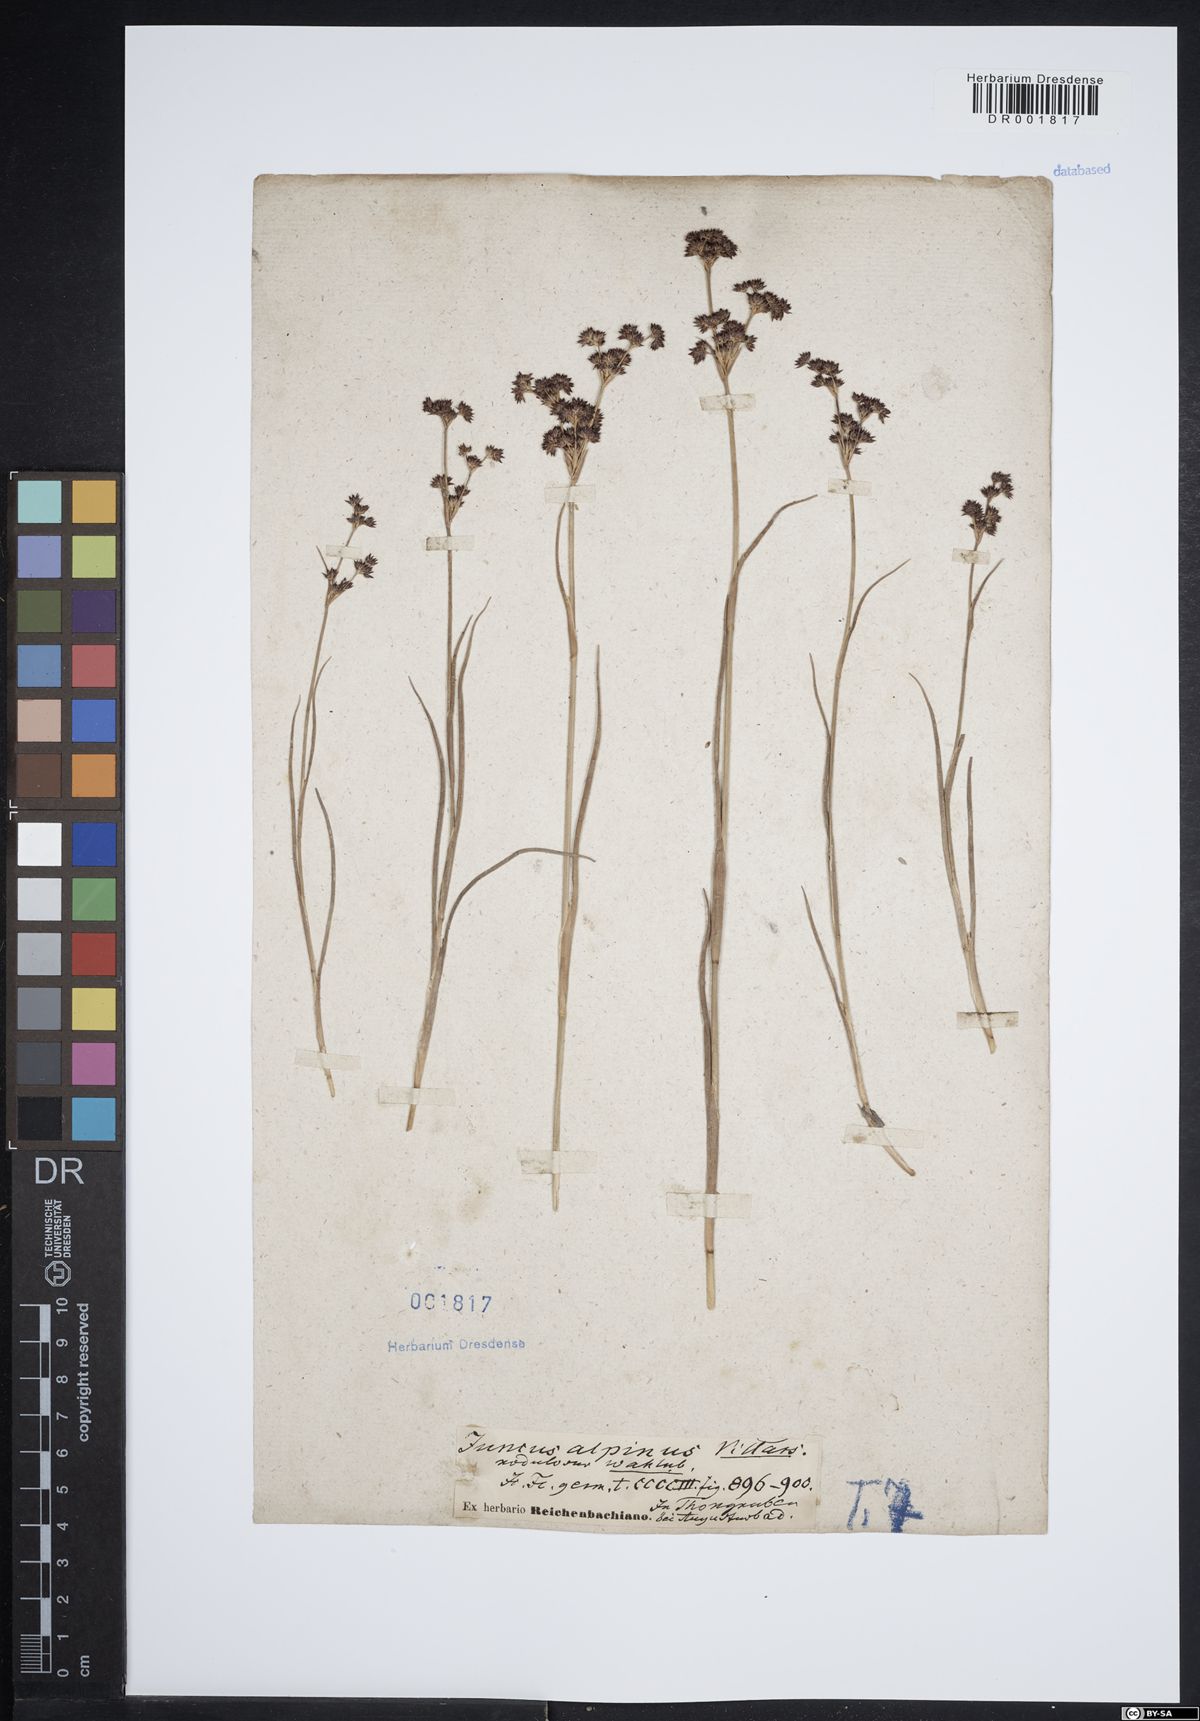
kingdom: Plantae
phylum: Tracheophyta
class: Liliopsida
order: Poales
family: Juncaceae
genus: Juncus
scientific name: Juncus alpinoarticulatus
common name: Alpine rush
